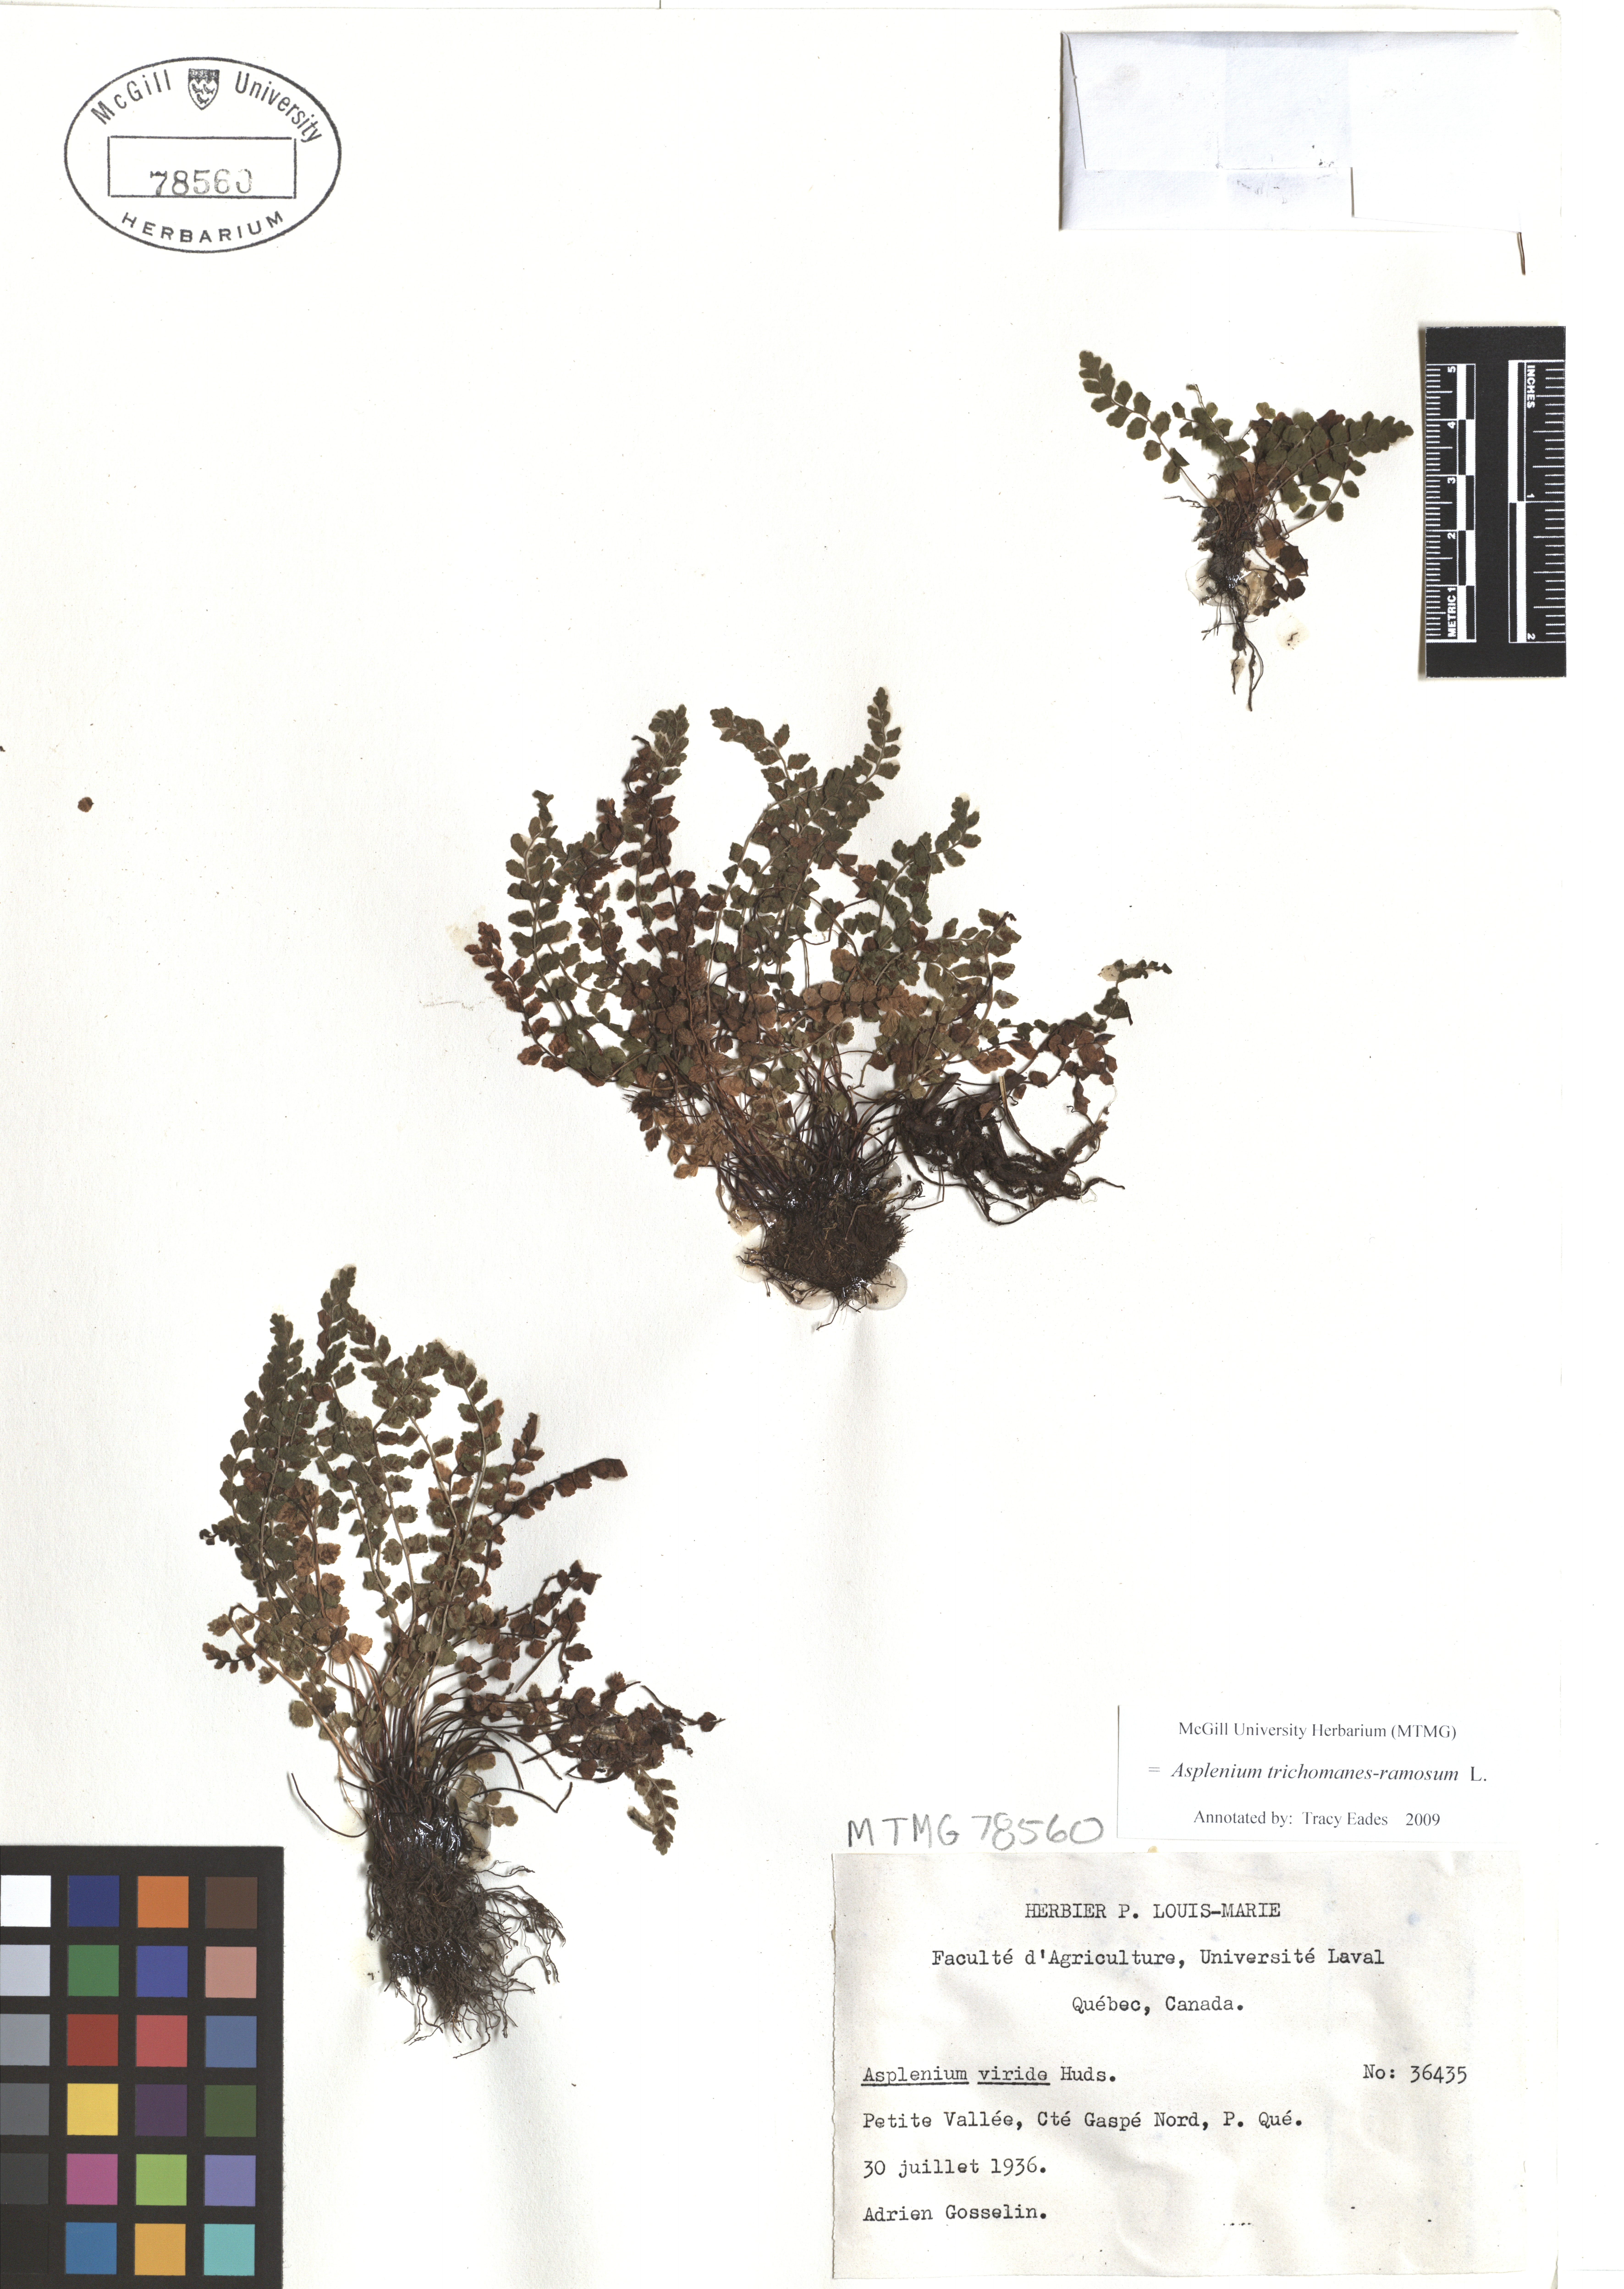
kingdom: Plantae
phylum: Tracheophyta
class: Polypodiopsida
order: Polypodiales
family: Aspleniaceae
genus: Asplenium
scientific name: Asplenium viride
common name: Green spleenwort
